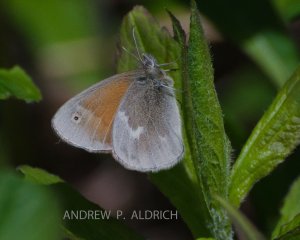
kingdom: Animalia
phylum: Arthropoda
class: Insecta
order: Lepidoptera
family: Nymphalidae
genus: Coenonympha
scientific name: Coenonympha tullia
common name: Large Heath
